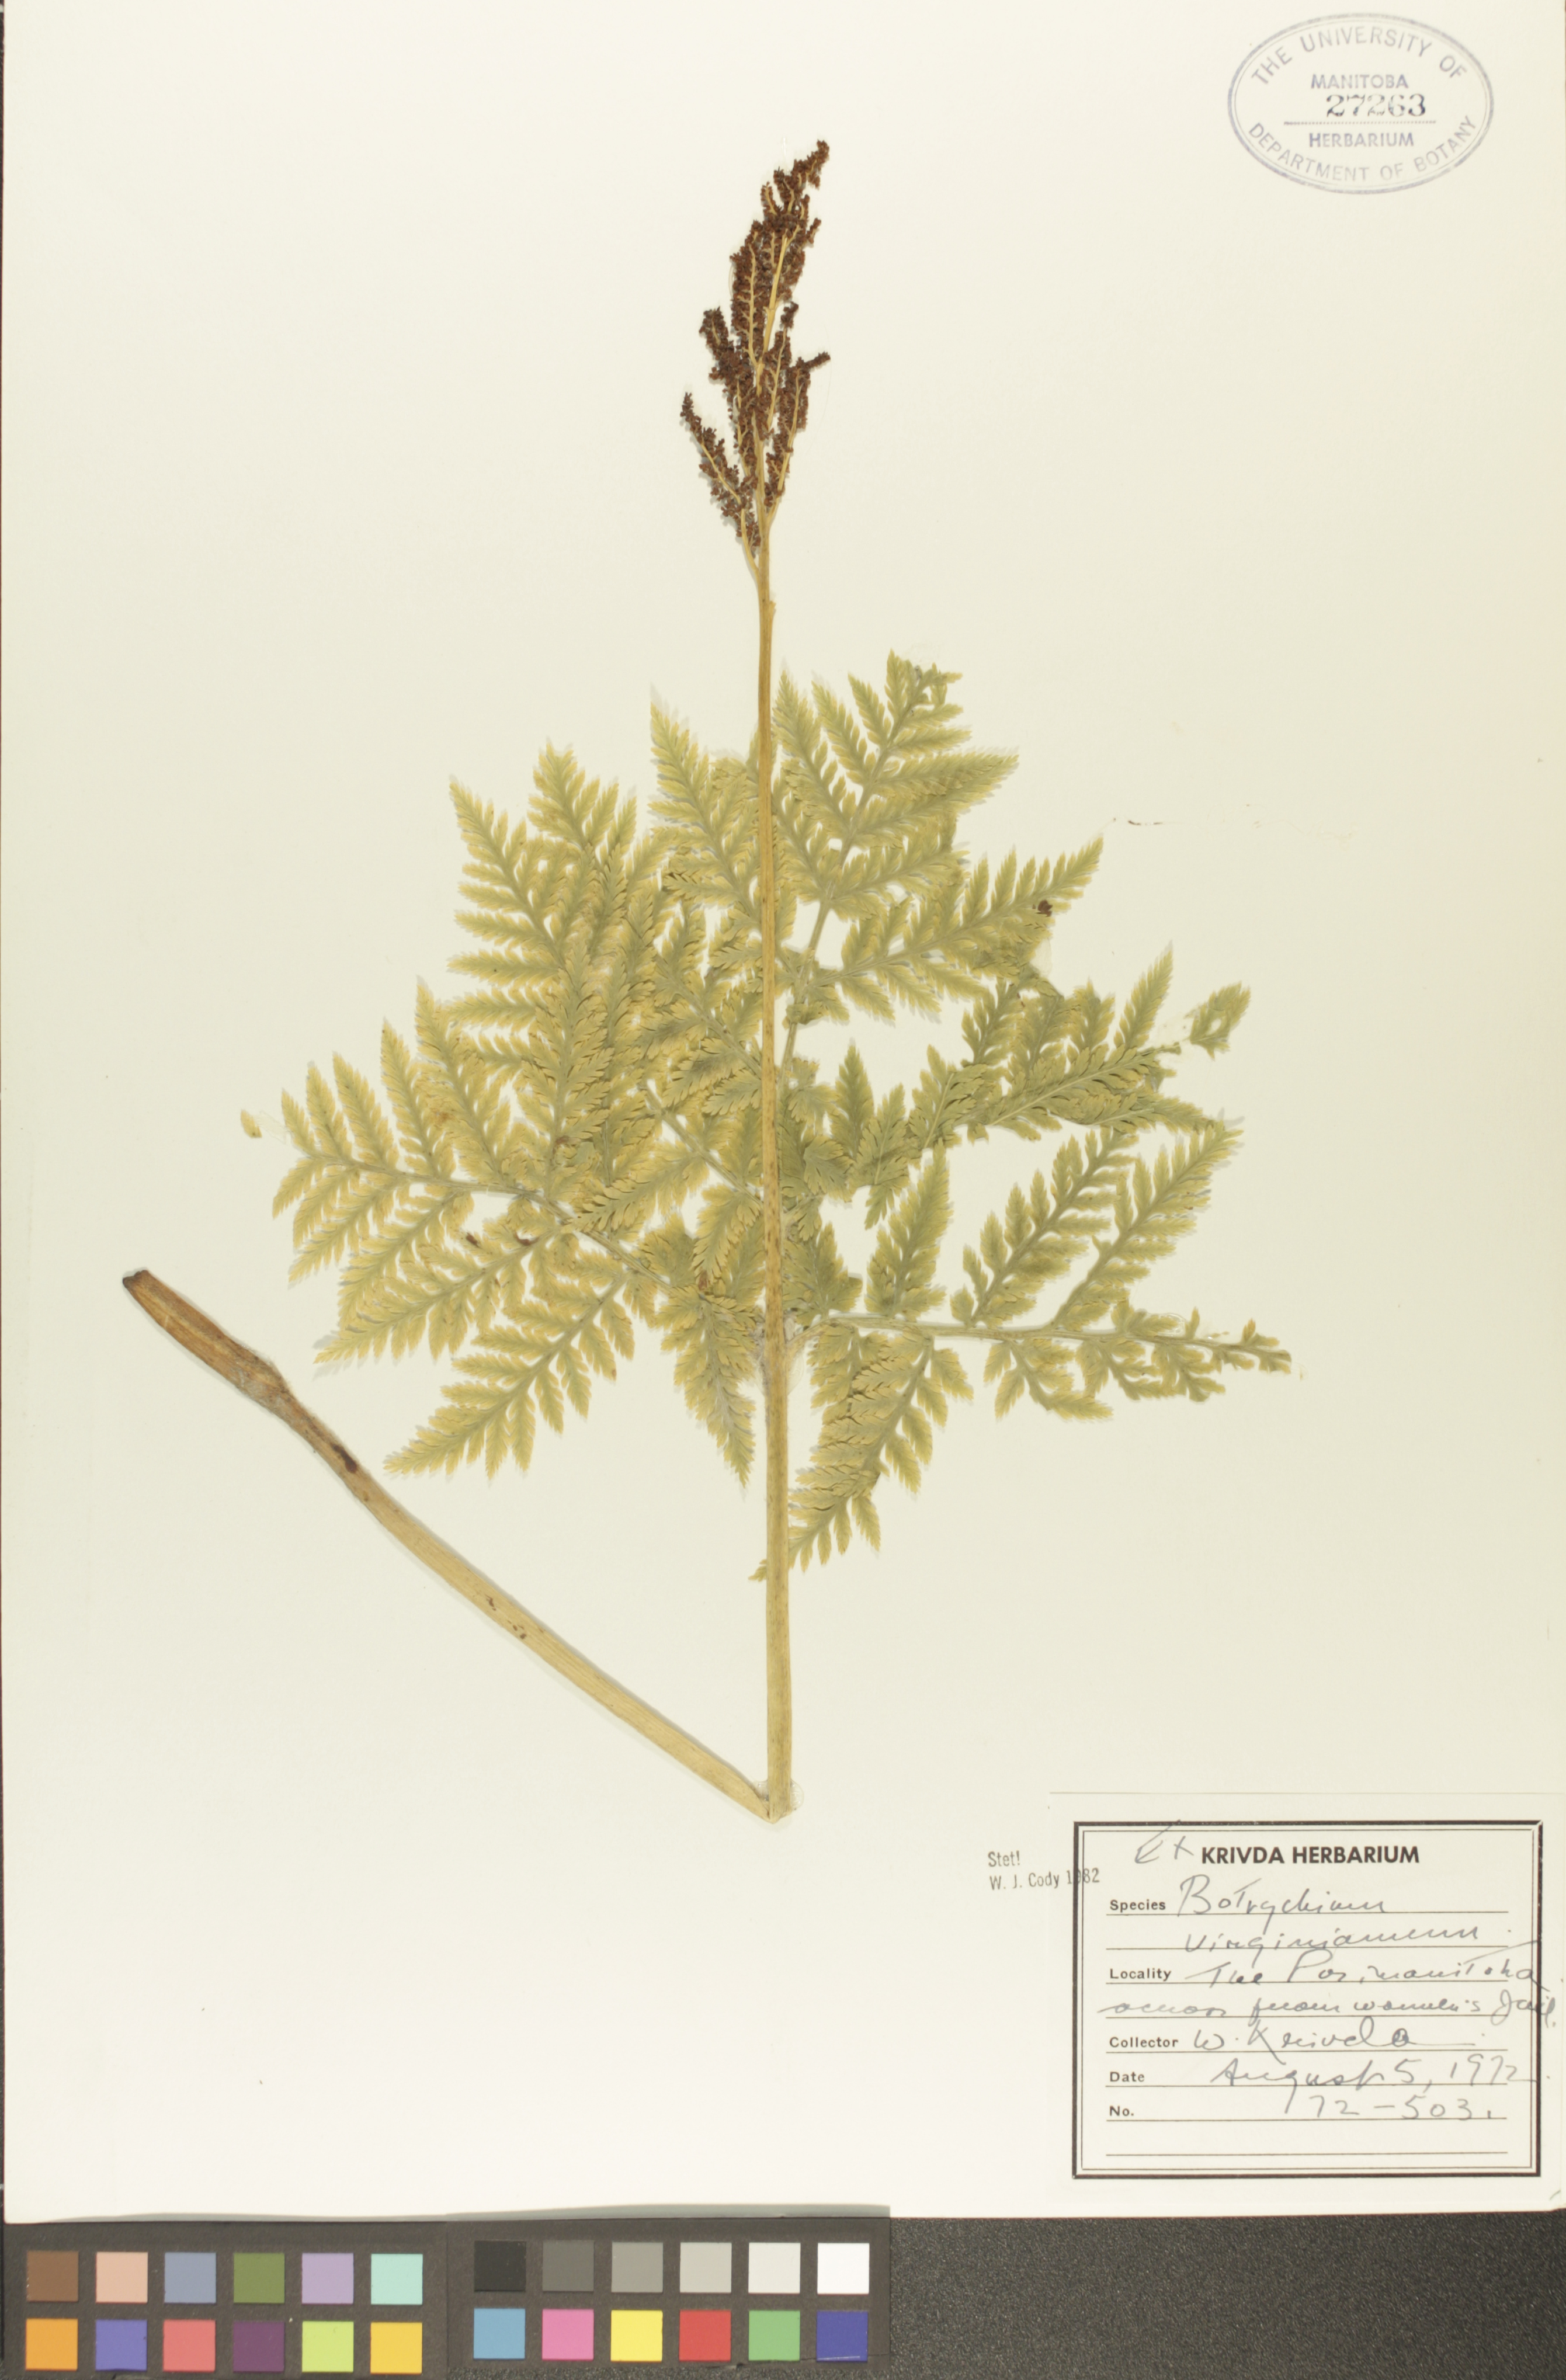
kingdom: Plantae
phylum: Tracheophyta
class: Polypodiopsida
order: Ophioglossales
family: Ophioglossaceae
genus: Botrypus
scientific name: Botrypus virginianus
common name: Common grapefern
